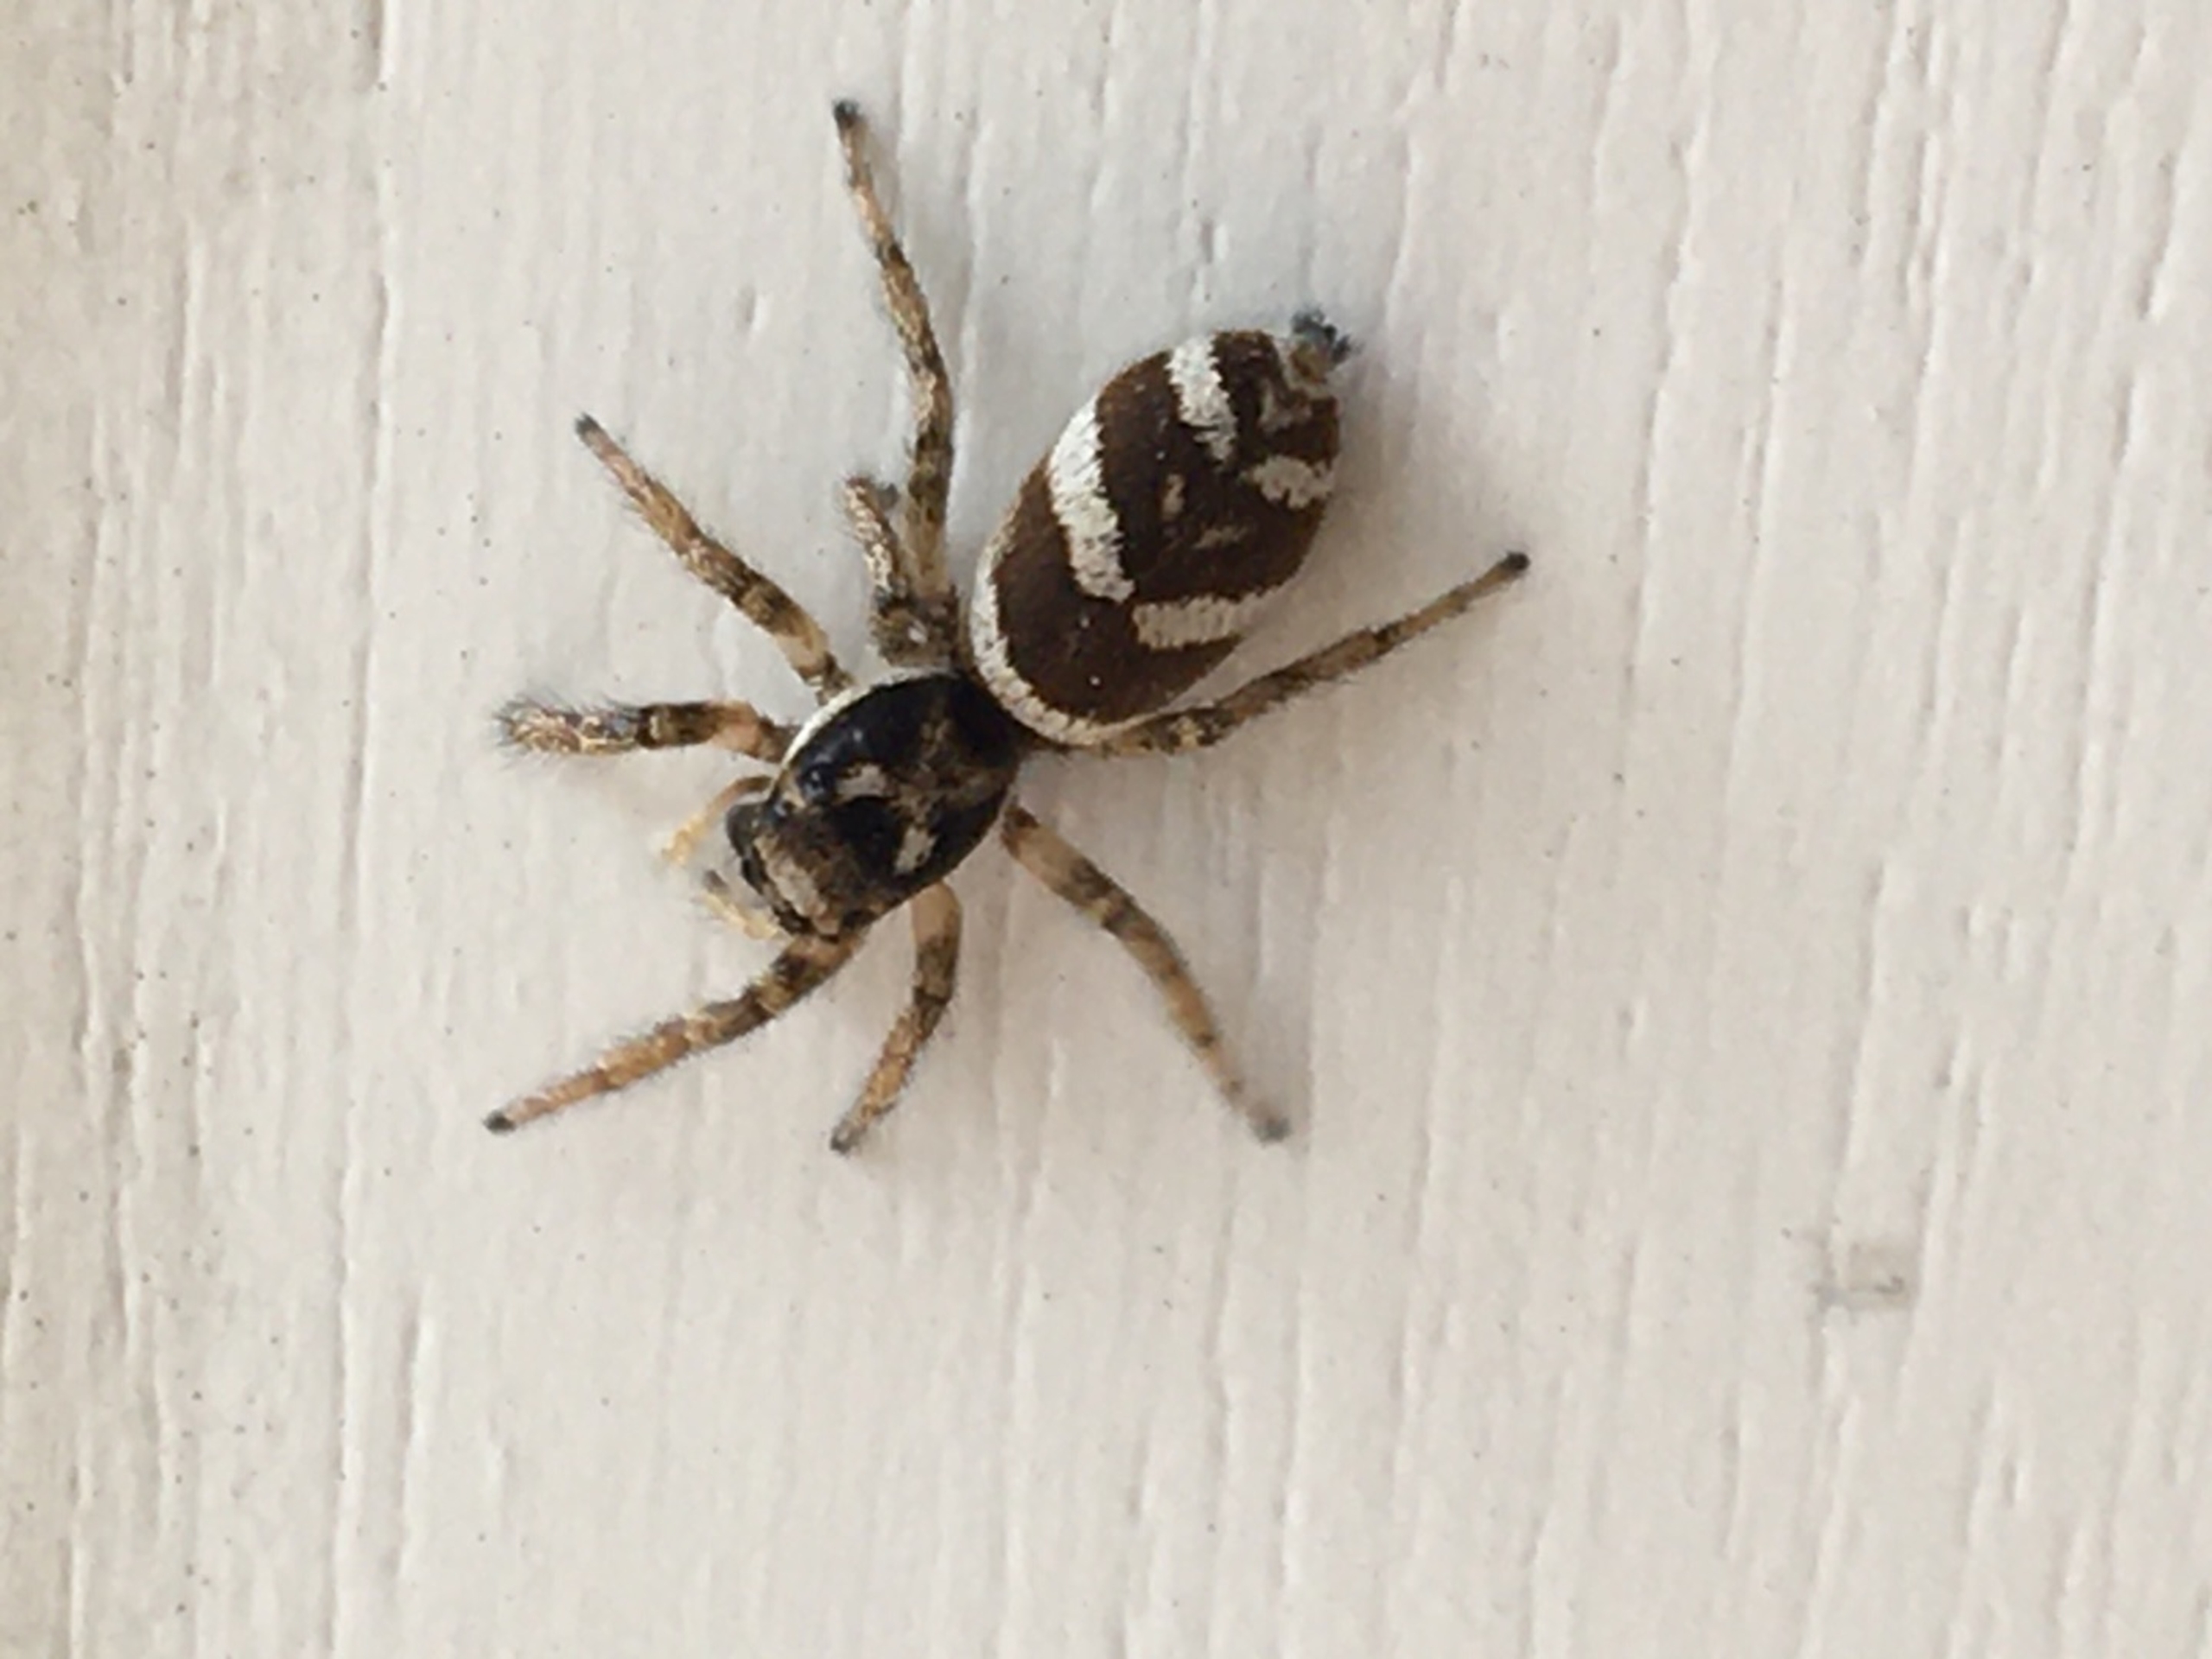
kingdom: Animalia
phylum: Arthropoda
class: Arachnida
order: Araneae
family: Salticidae
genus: Salticus
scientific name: Salticus scenicus
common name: Almindelig zebraedderkop
